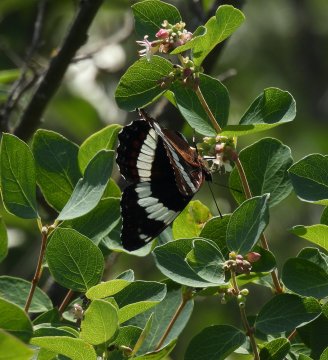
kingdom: Animalia
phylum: Arthropoda
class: Insecta
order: Lepidoptera
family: Nymphalidae
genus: Limenitis
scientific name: Limenitis arthemis
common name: Red-spotted Admiral
